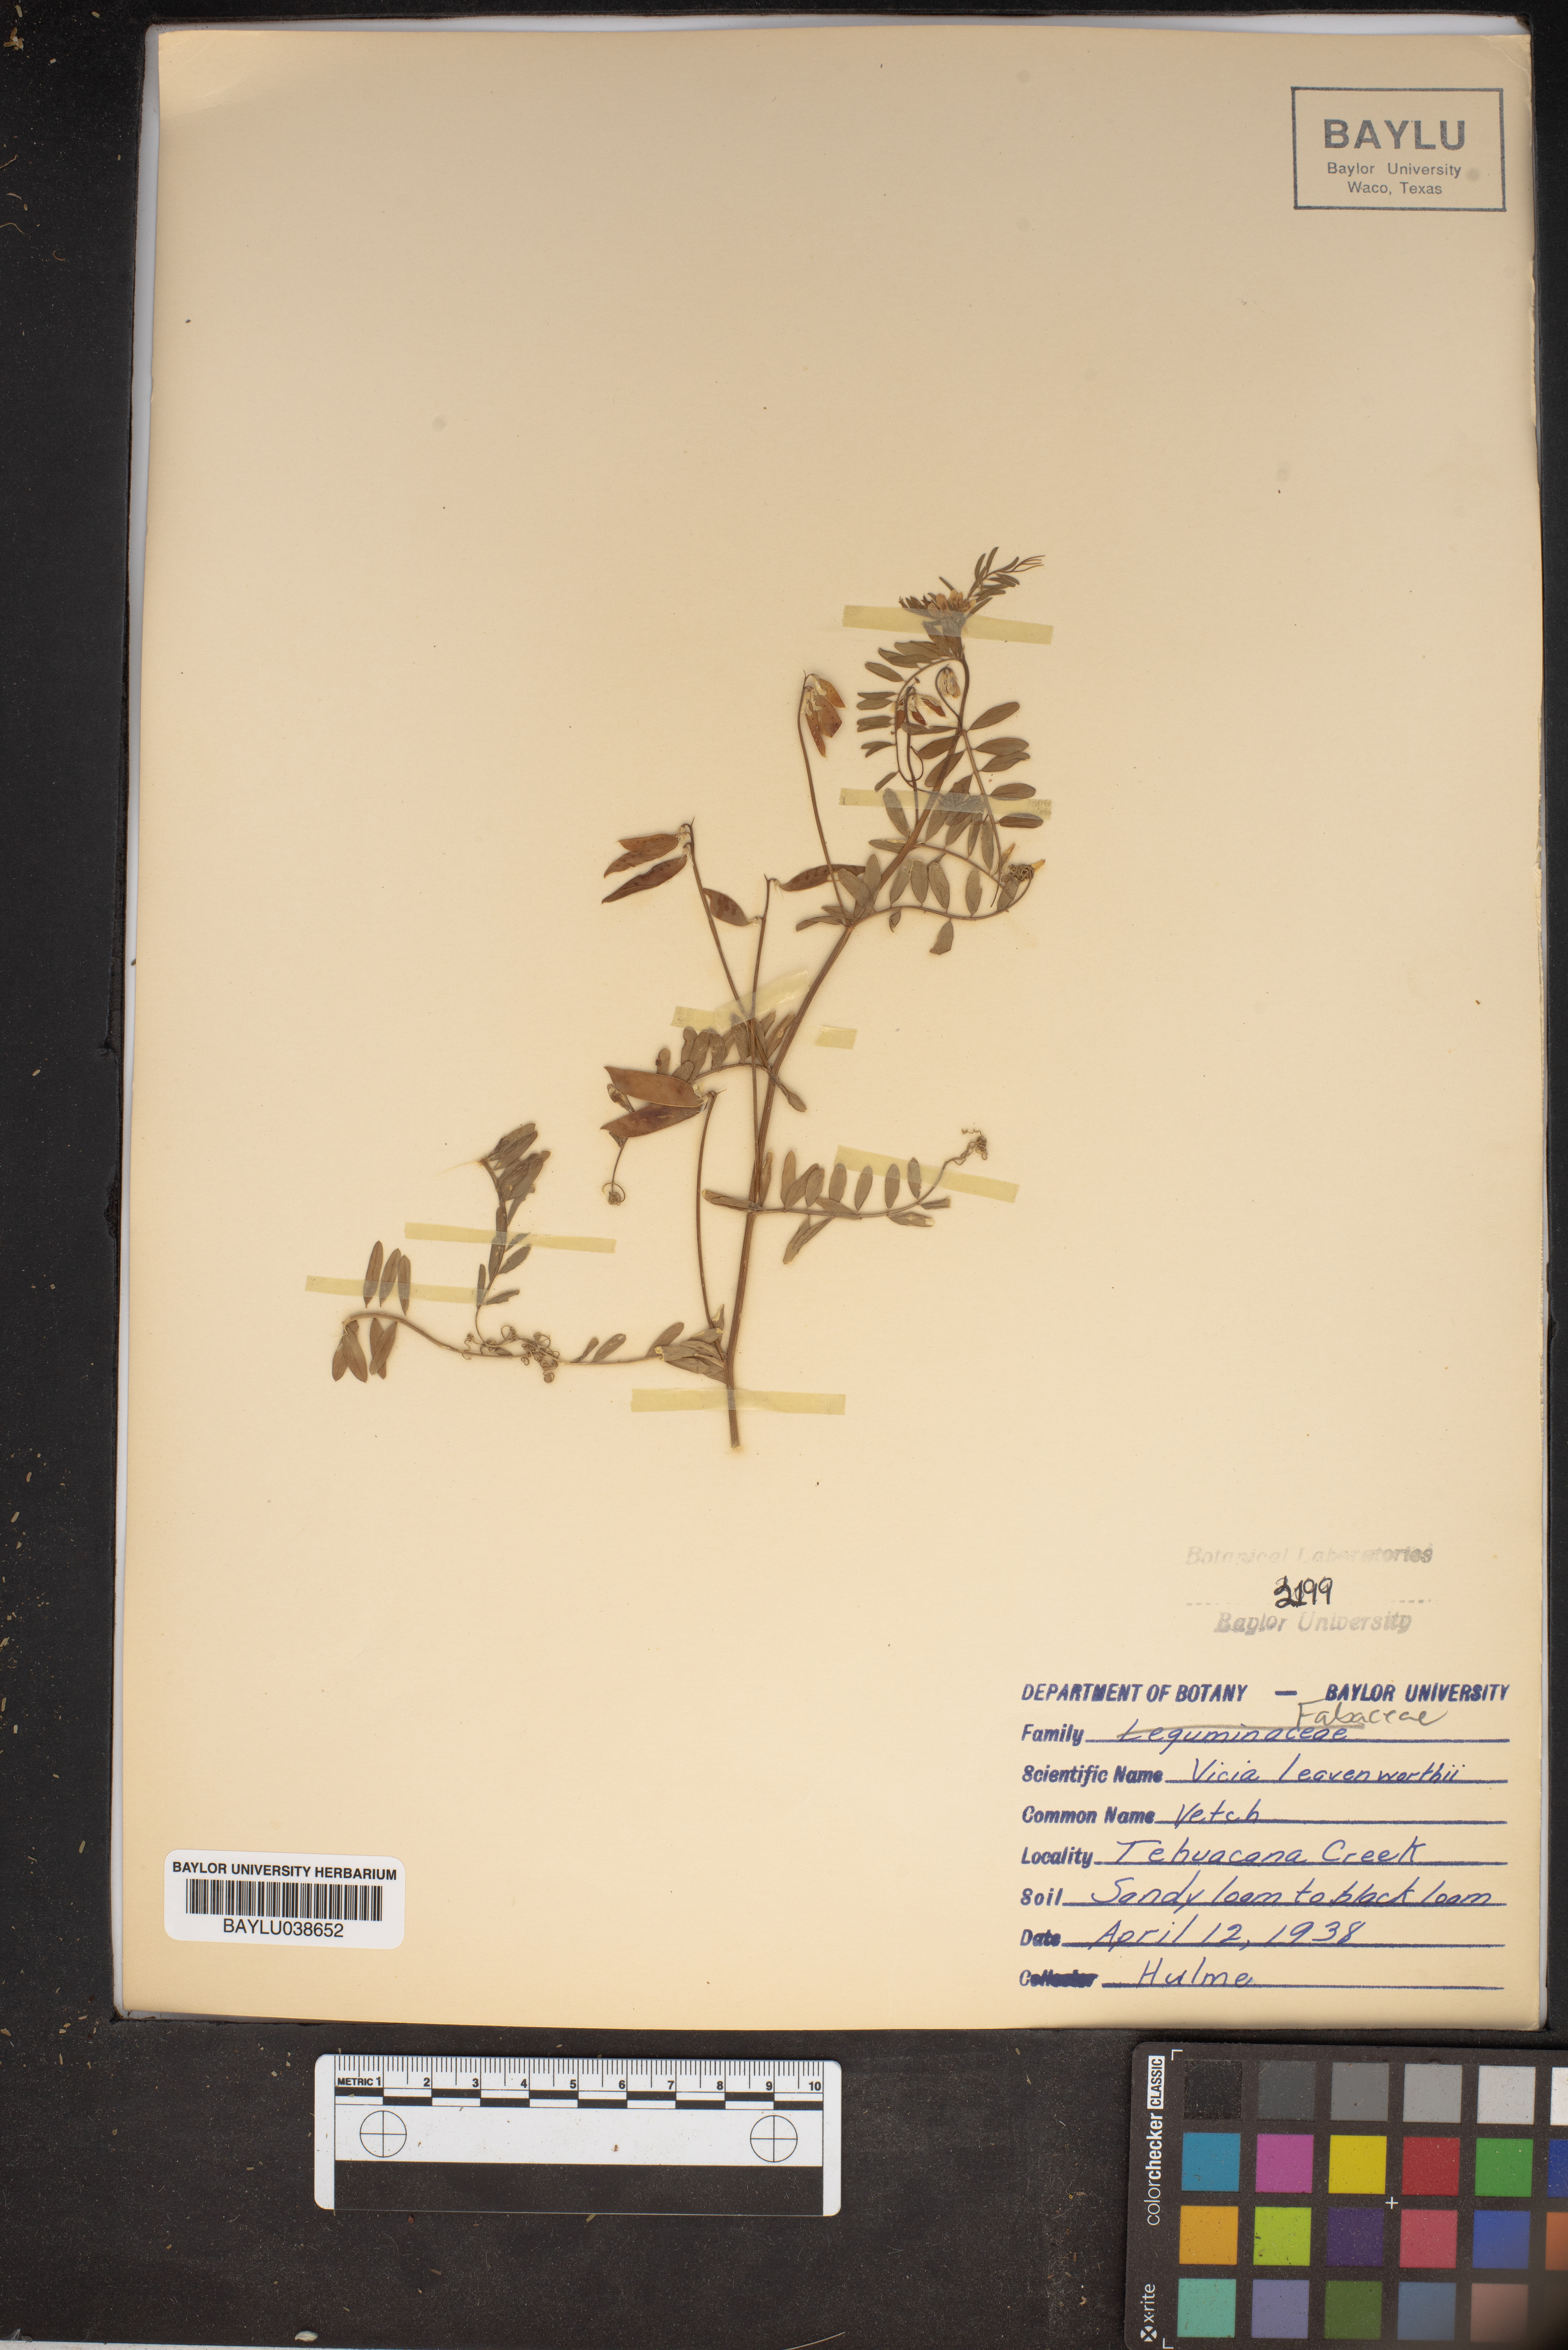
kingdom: Plantae
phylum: Tracheophyta
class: Magnoliopsida
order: Fabales
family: Fabaceae
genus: Vicia
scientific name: Vicia ludoviciana
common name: Louisiana vetch
